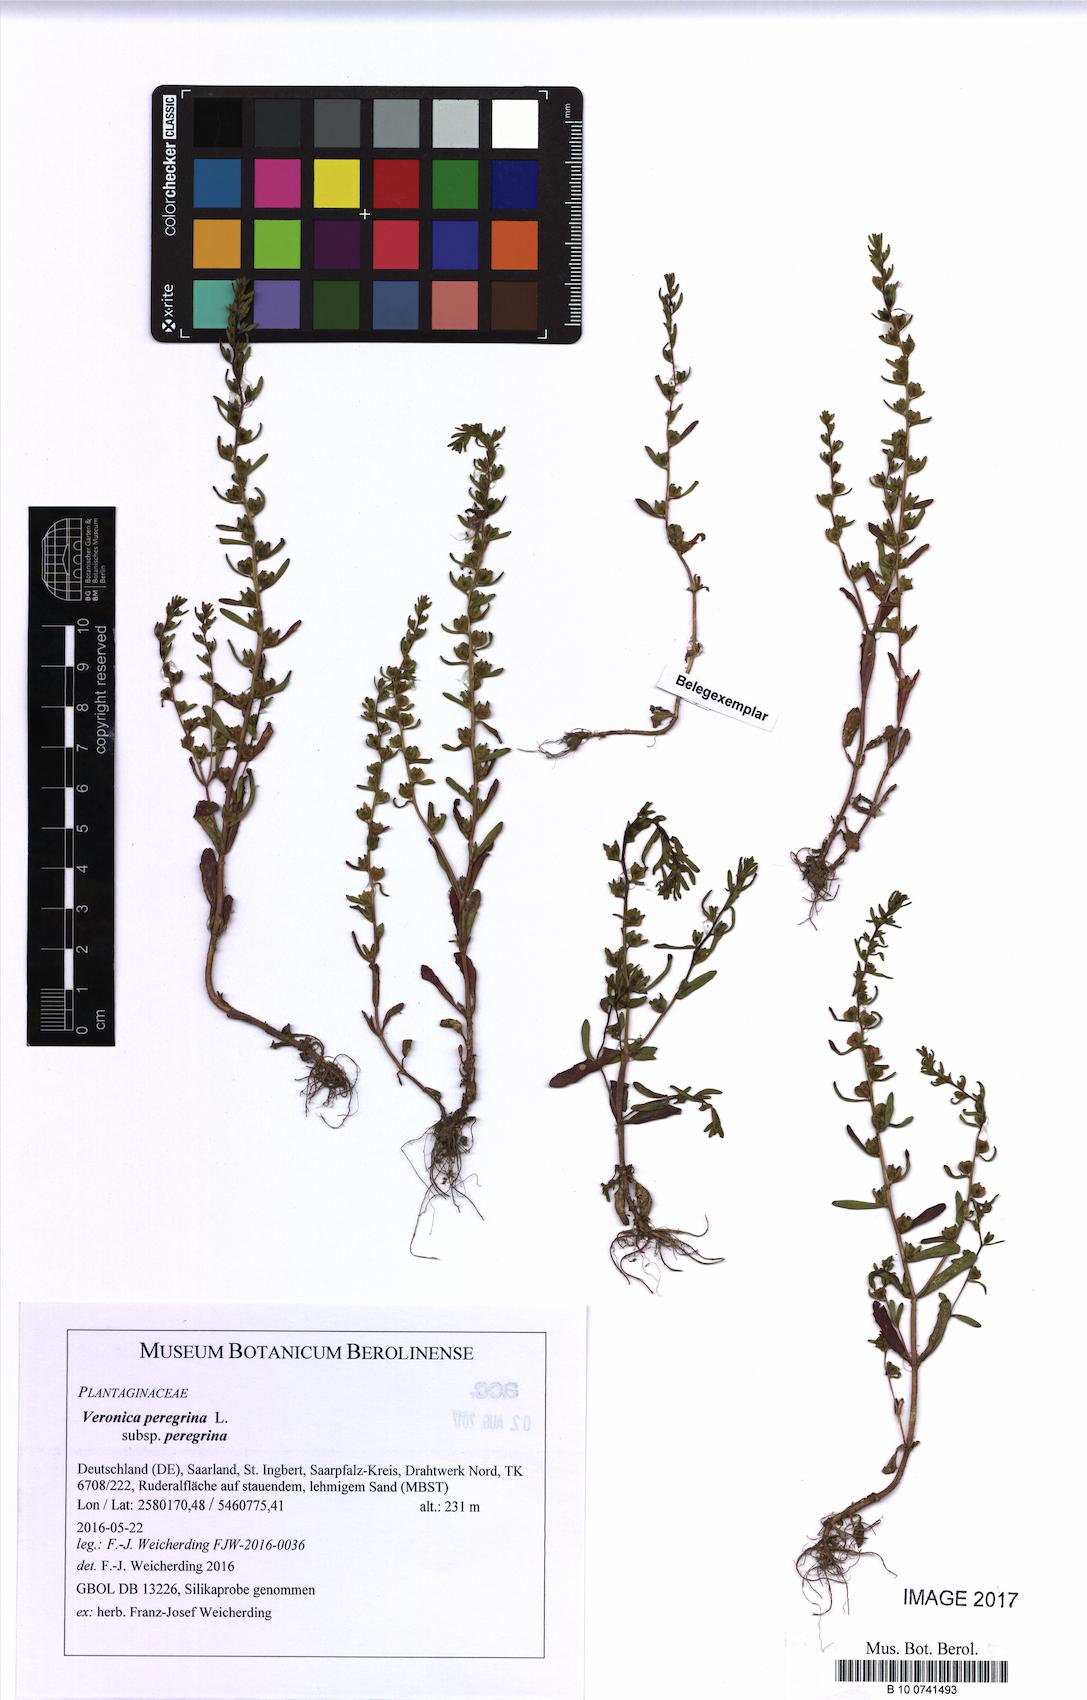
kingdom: Plantae
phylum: Tracheophyta
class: Magnoliopsida
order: Lamiales
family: Plantaginaceae
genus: Veronica
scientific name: Veronica peregrina
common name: Neckweed
